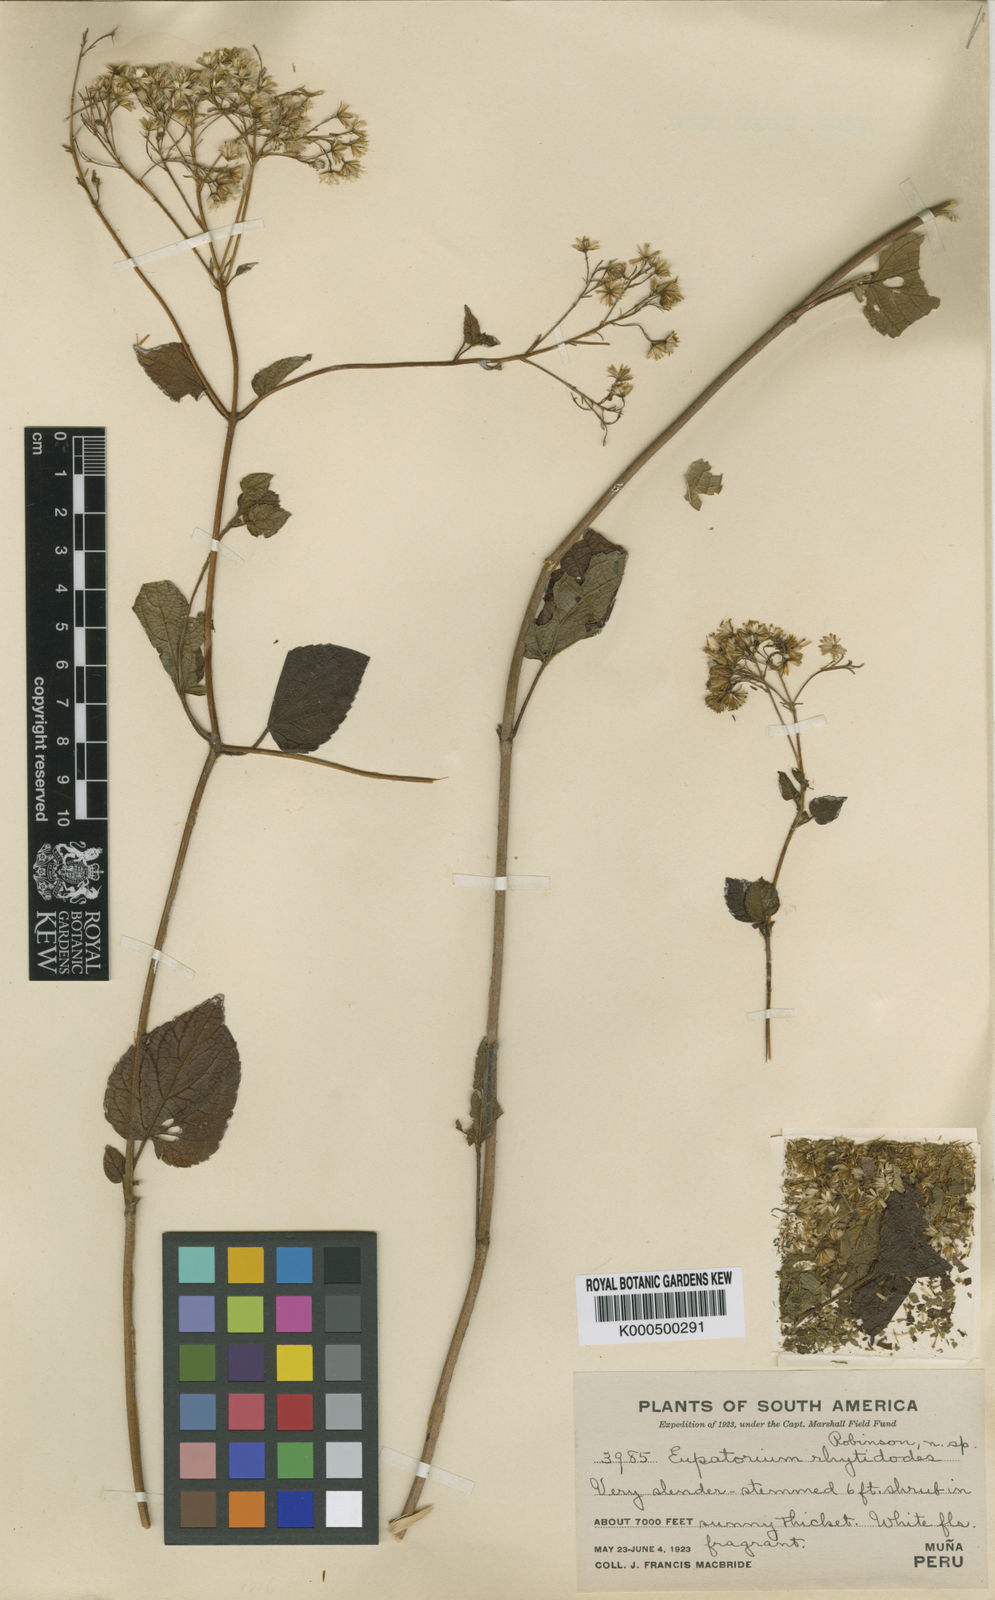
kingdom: Plantae
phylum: Tracheophyta
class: Magnoliopsida
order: Asterales
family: Asteraceae
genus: Ageratina
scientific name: Ageratina rhytidodes
